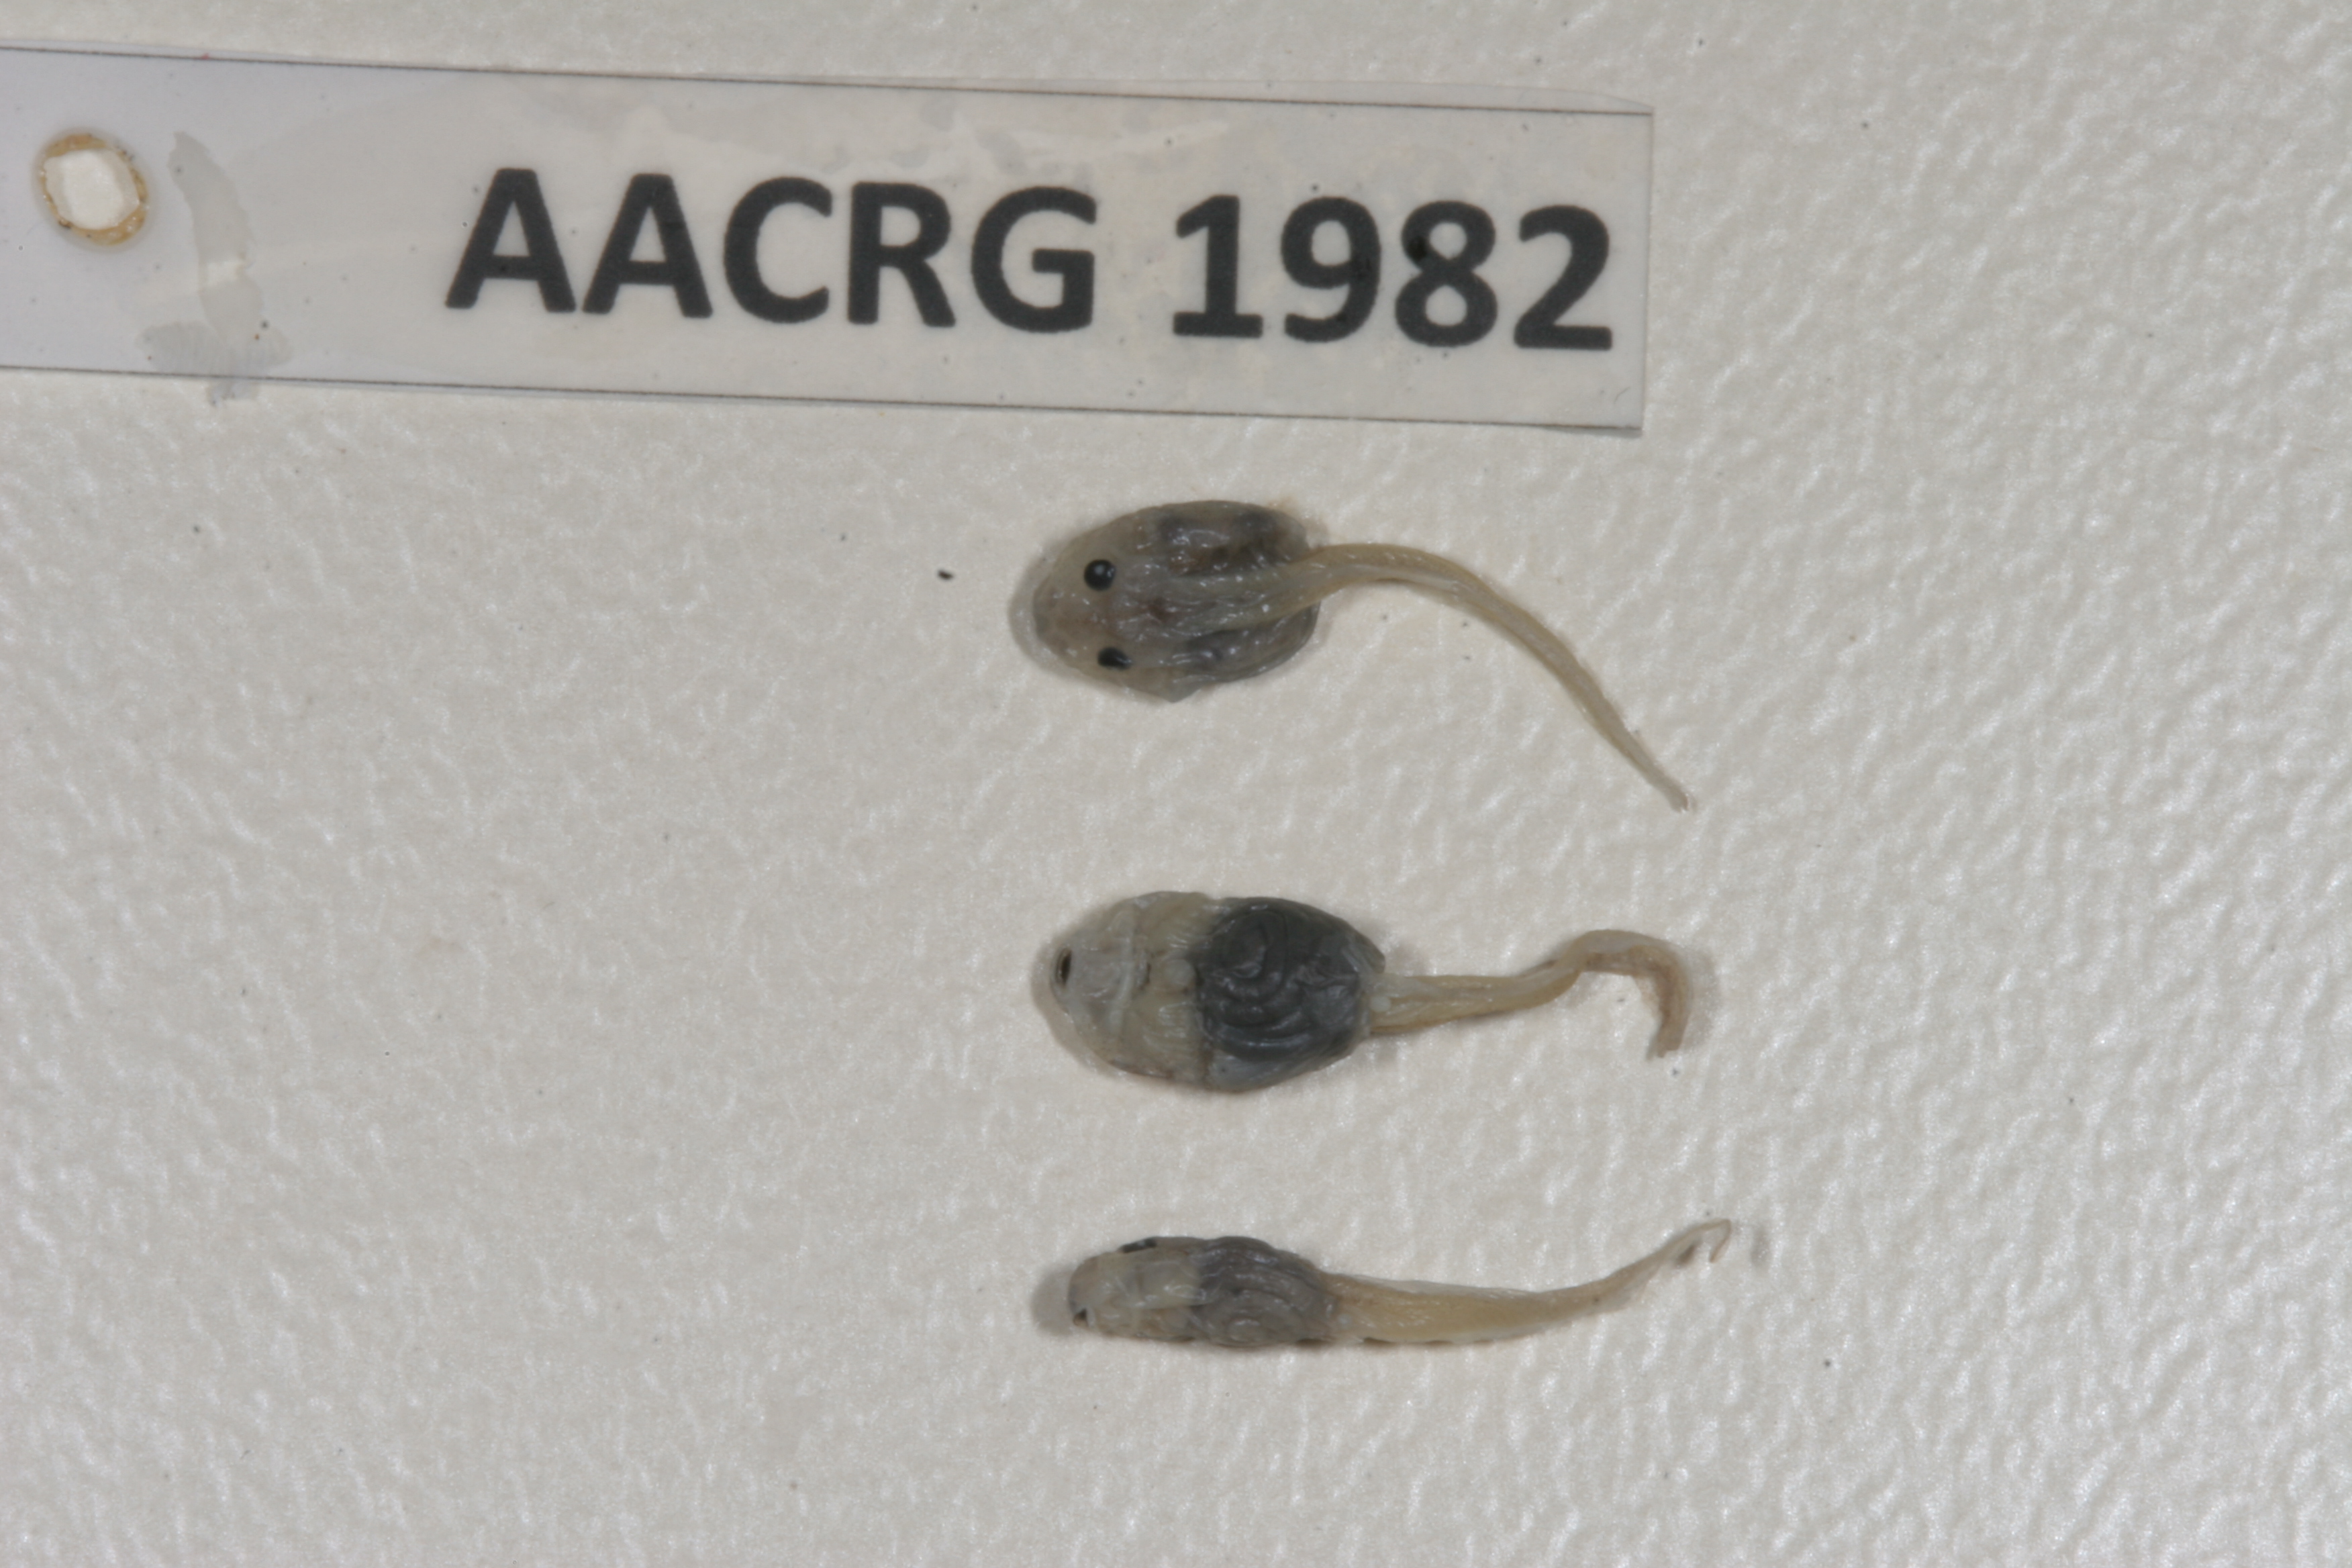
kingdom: Animalia
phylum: Chordata
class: Amphibia
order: Anura
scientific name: Anura
